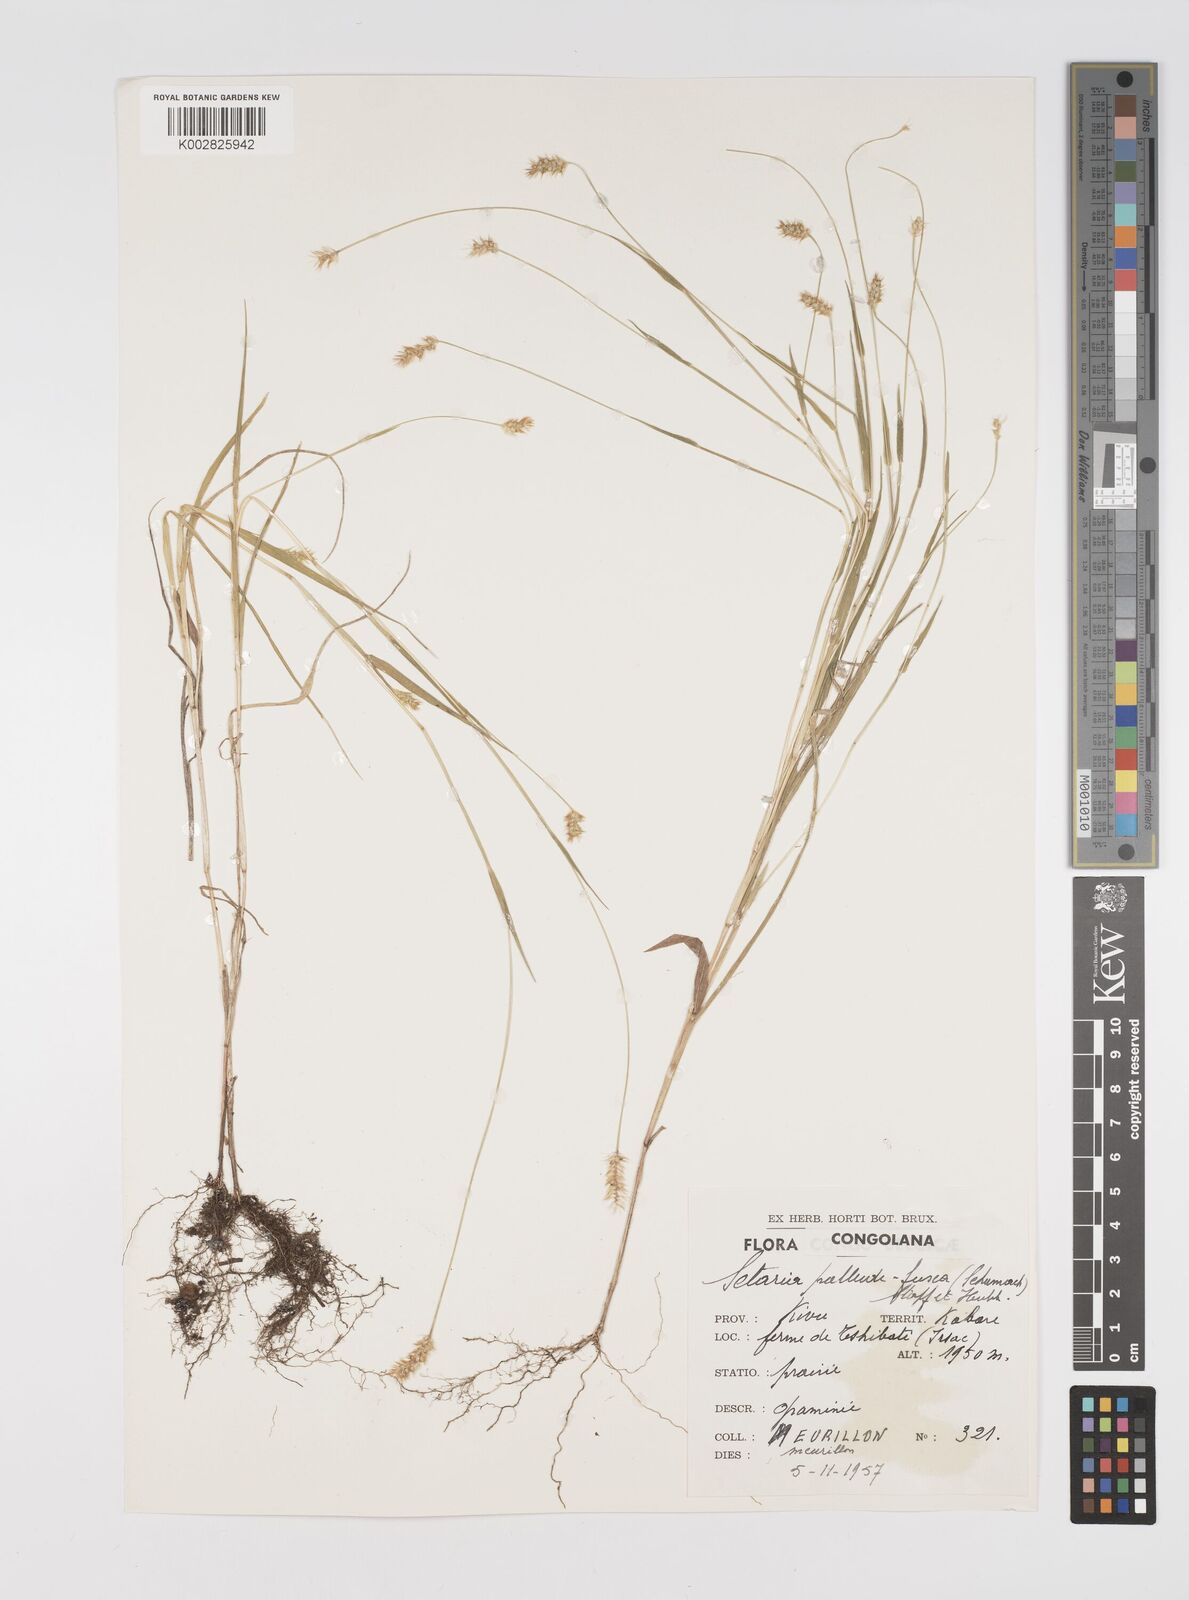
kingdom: Plantae
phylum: Tracheophyta
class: Liliopsida
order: Poales
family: Poaceae
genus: Setaria
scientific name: Setaria pumila
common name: Yellow bristle-grass
